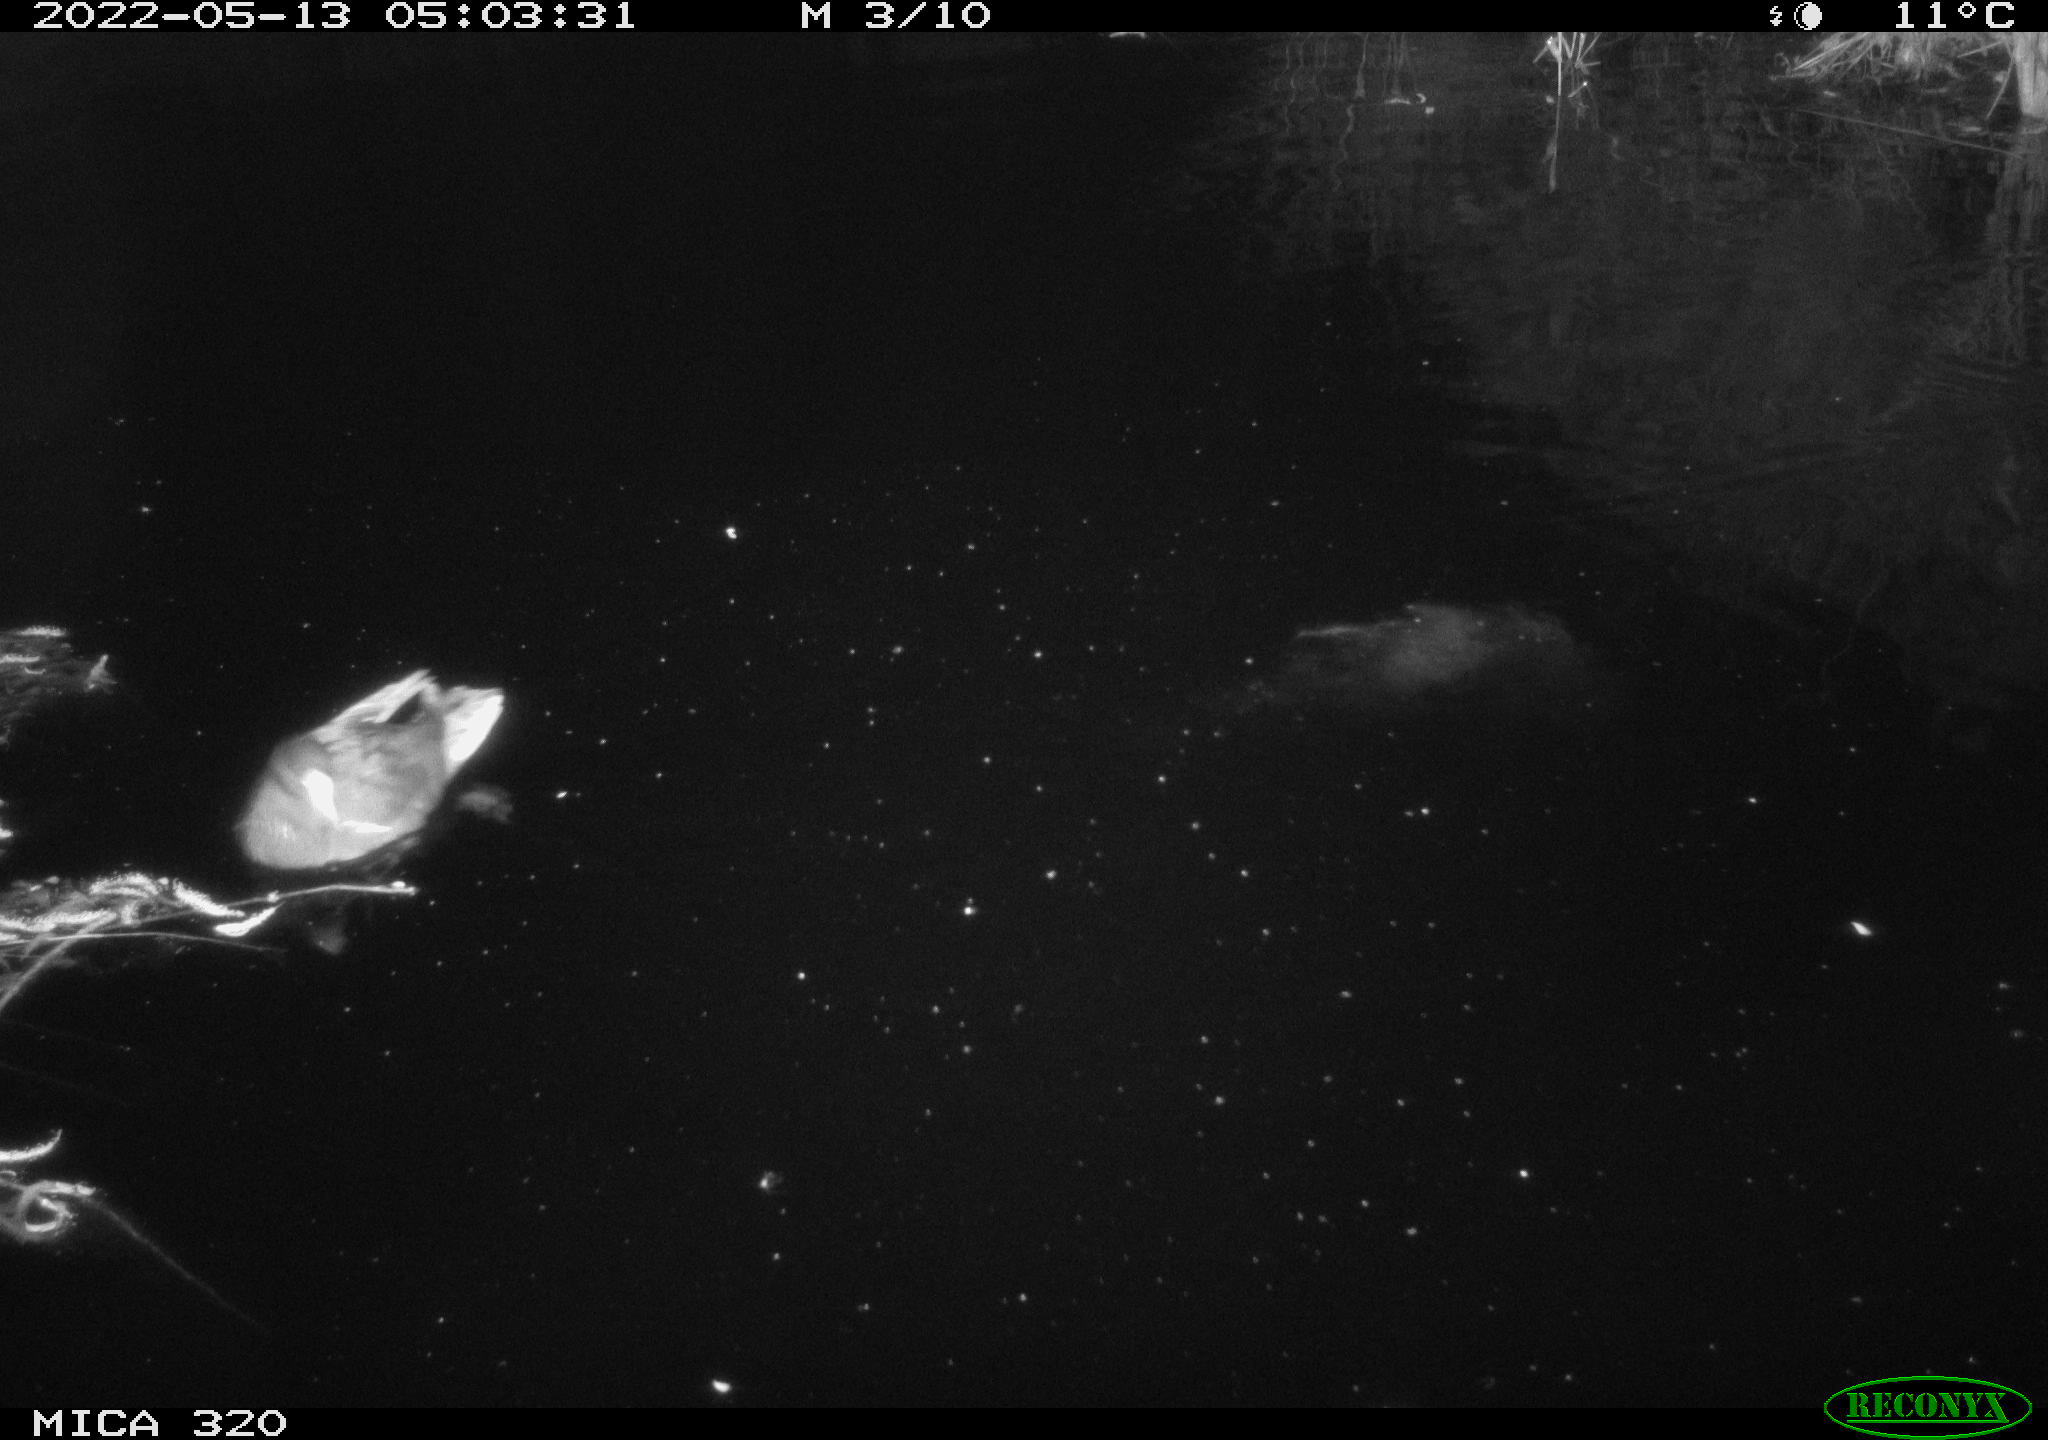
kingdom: Animalia
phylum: Chordata
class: Aves
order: Gruiformes
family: Rallidae
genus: Gallinula
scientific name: Gallinula chloropus
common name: Common moorhen
